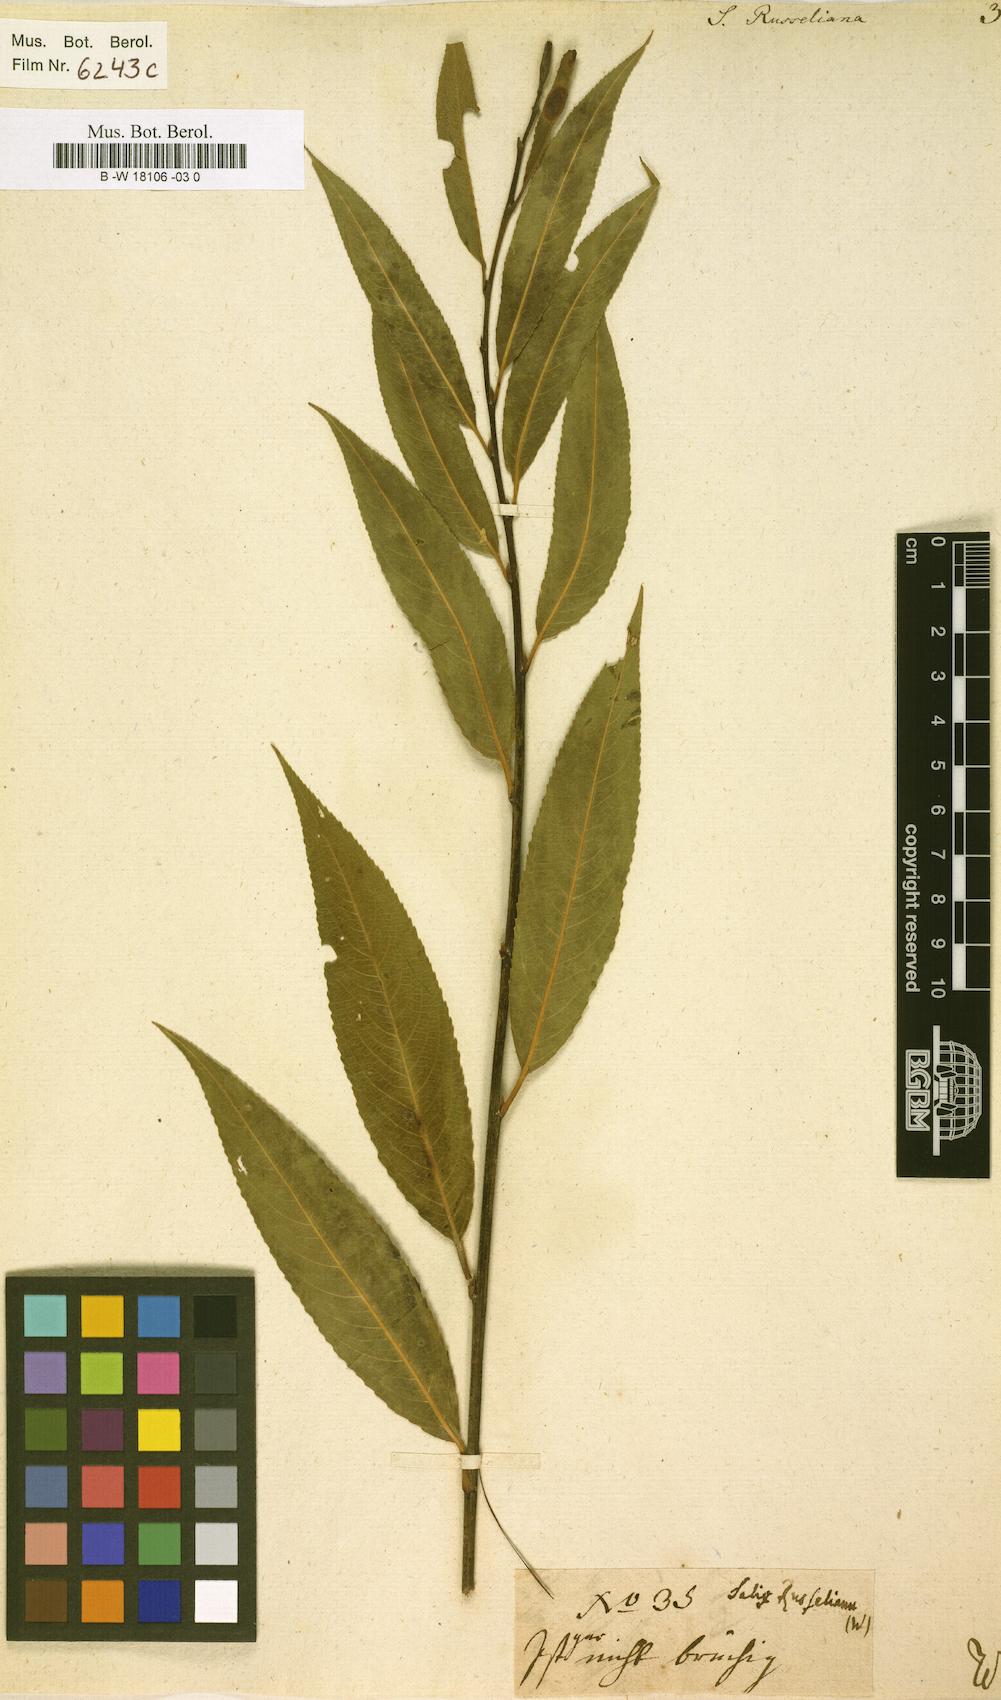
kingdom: Plantae
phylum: Tracheophyta
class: Magnoliopsida
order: Malpighiales
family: Salicaceae
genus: Salix
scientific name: Salix rubens
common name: Hybrid crack willow
